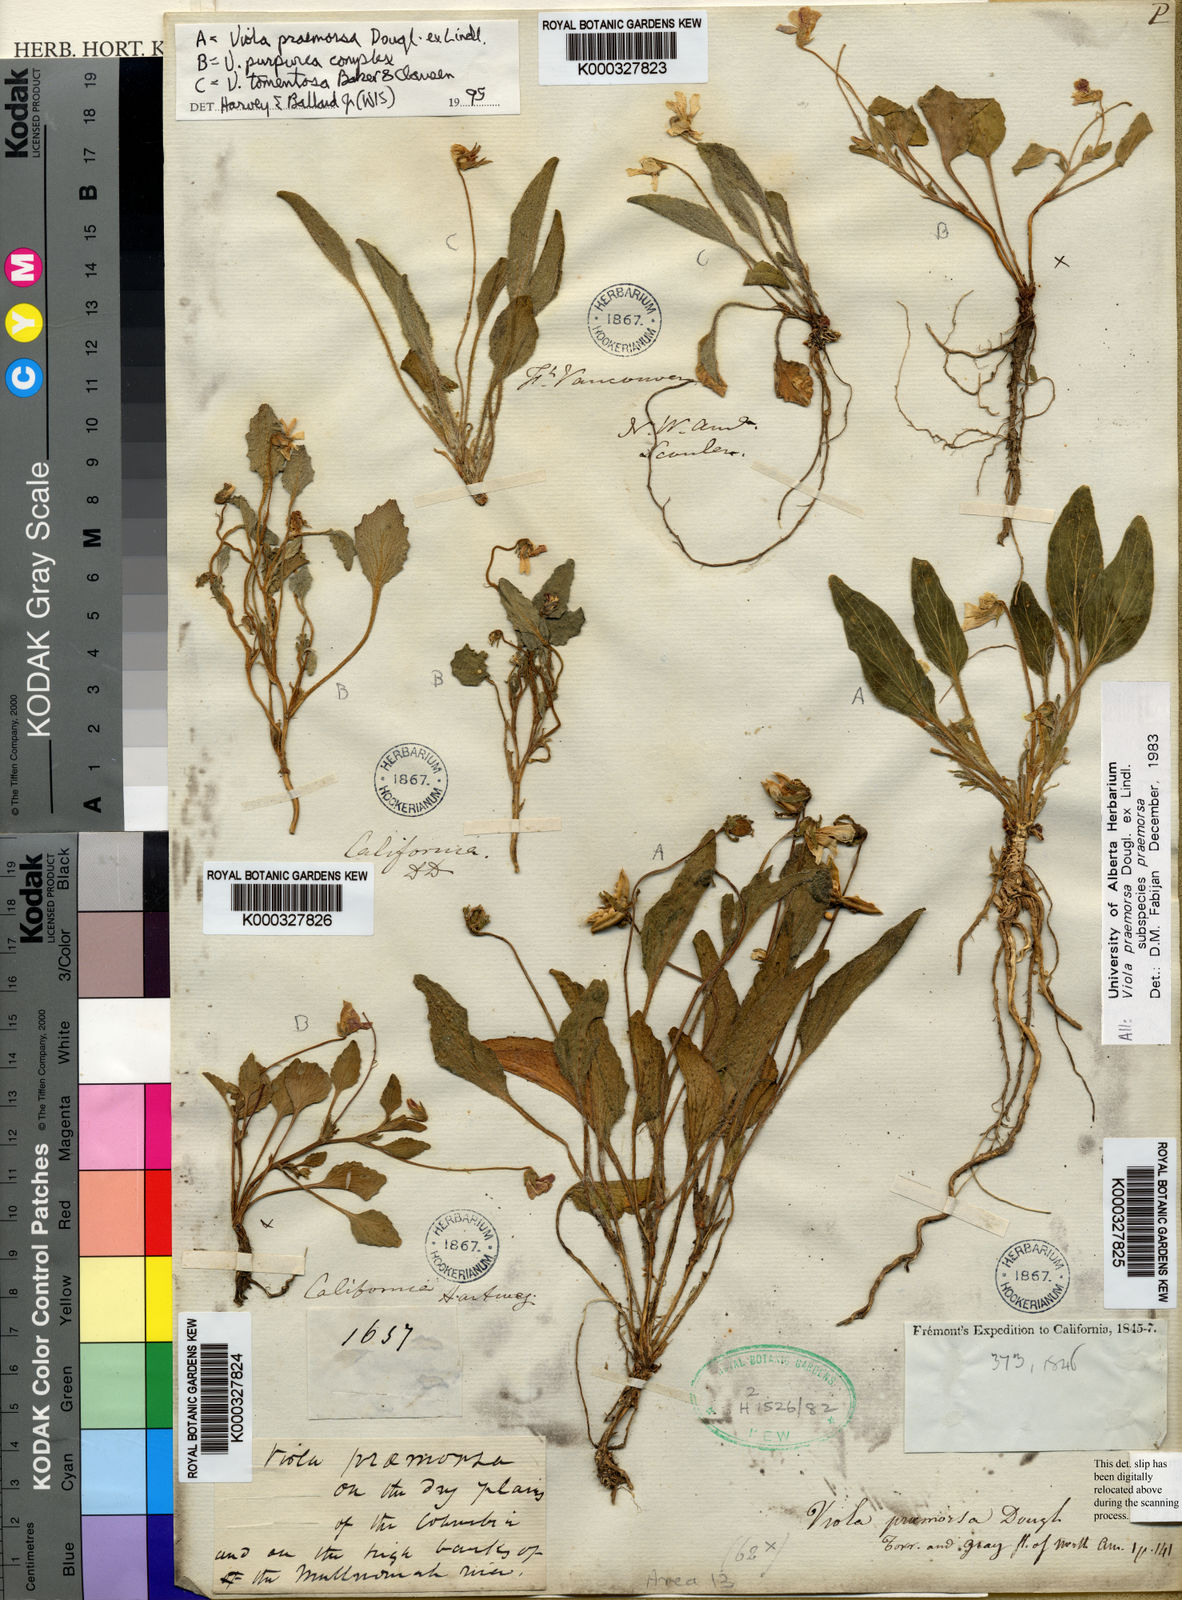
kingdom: Plantae
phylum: Tracheophyta
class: Magnoliopsida
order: Malpighiales
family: Violaceae
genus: Viola
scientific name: Viola aurea
